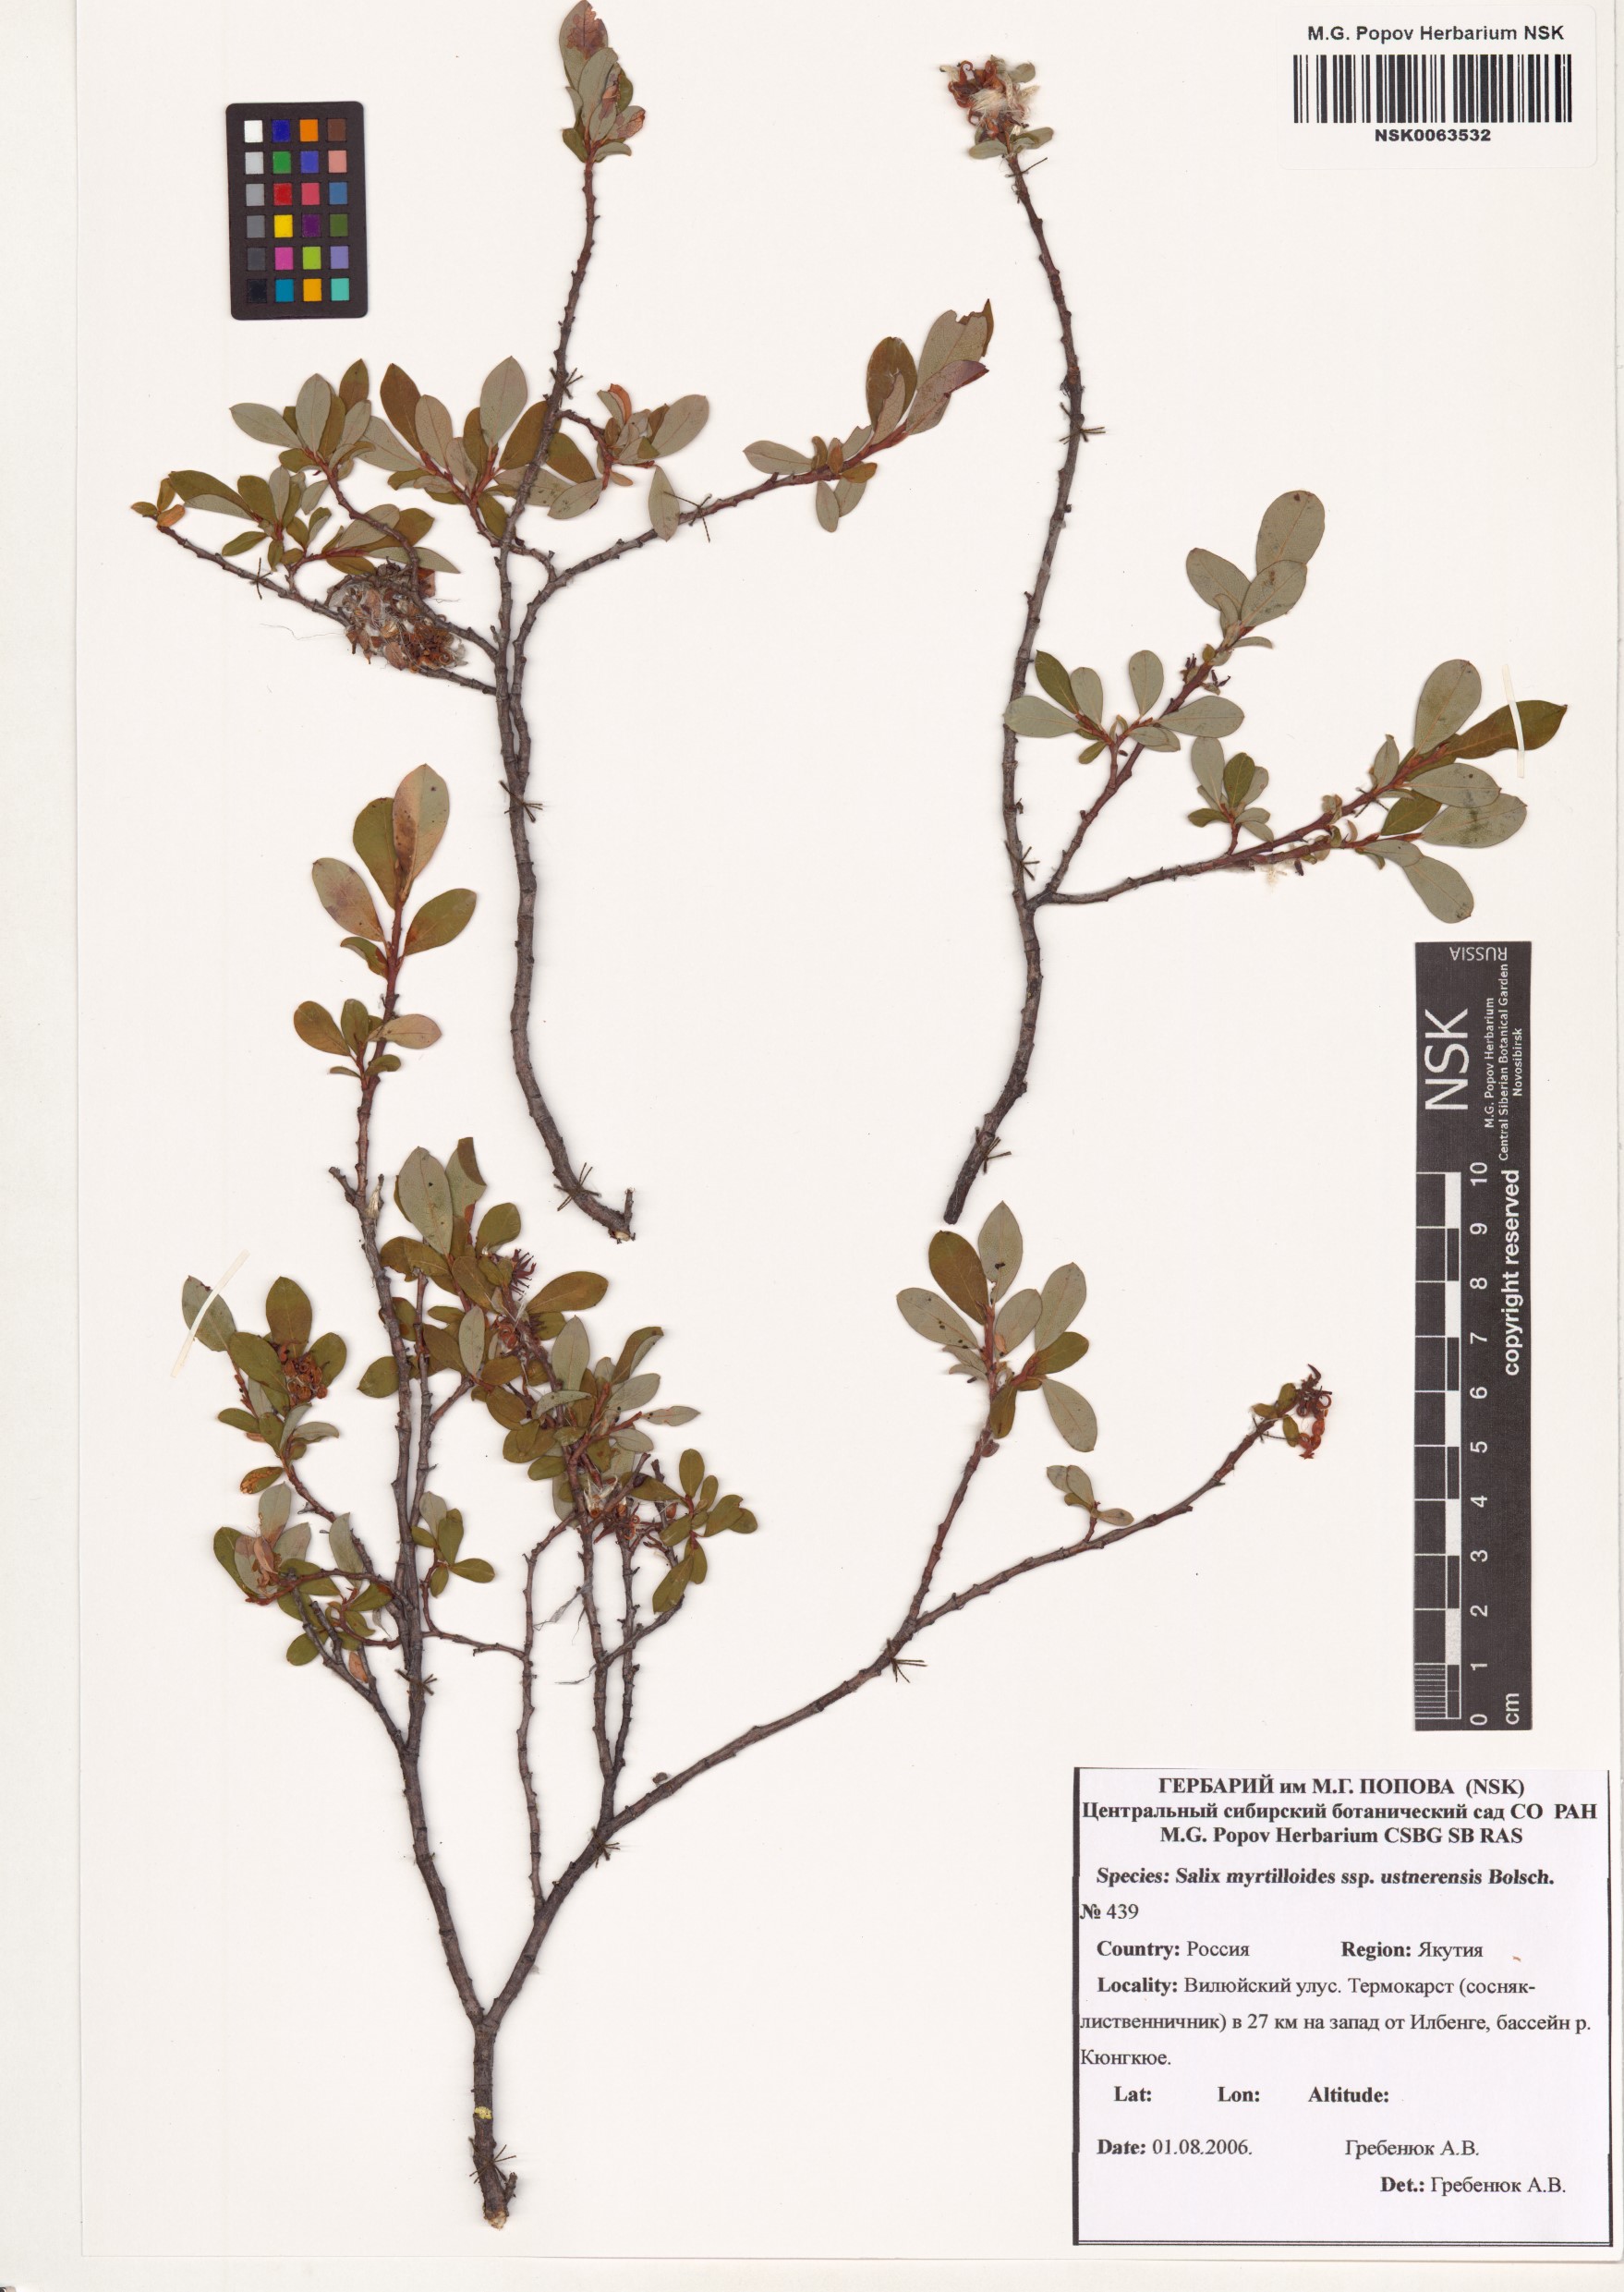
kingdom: Plantae
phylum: Tracheophyta
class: Magnoliopsida
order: Malpighiales
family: Salicaceae
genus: Salix
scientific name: Salix ustnerensis
